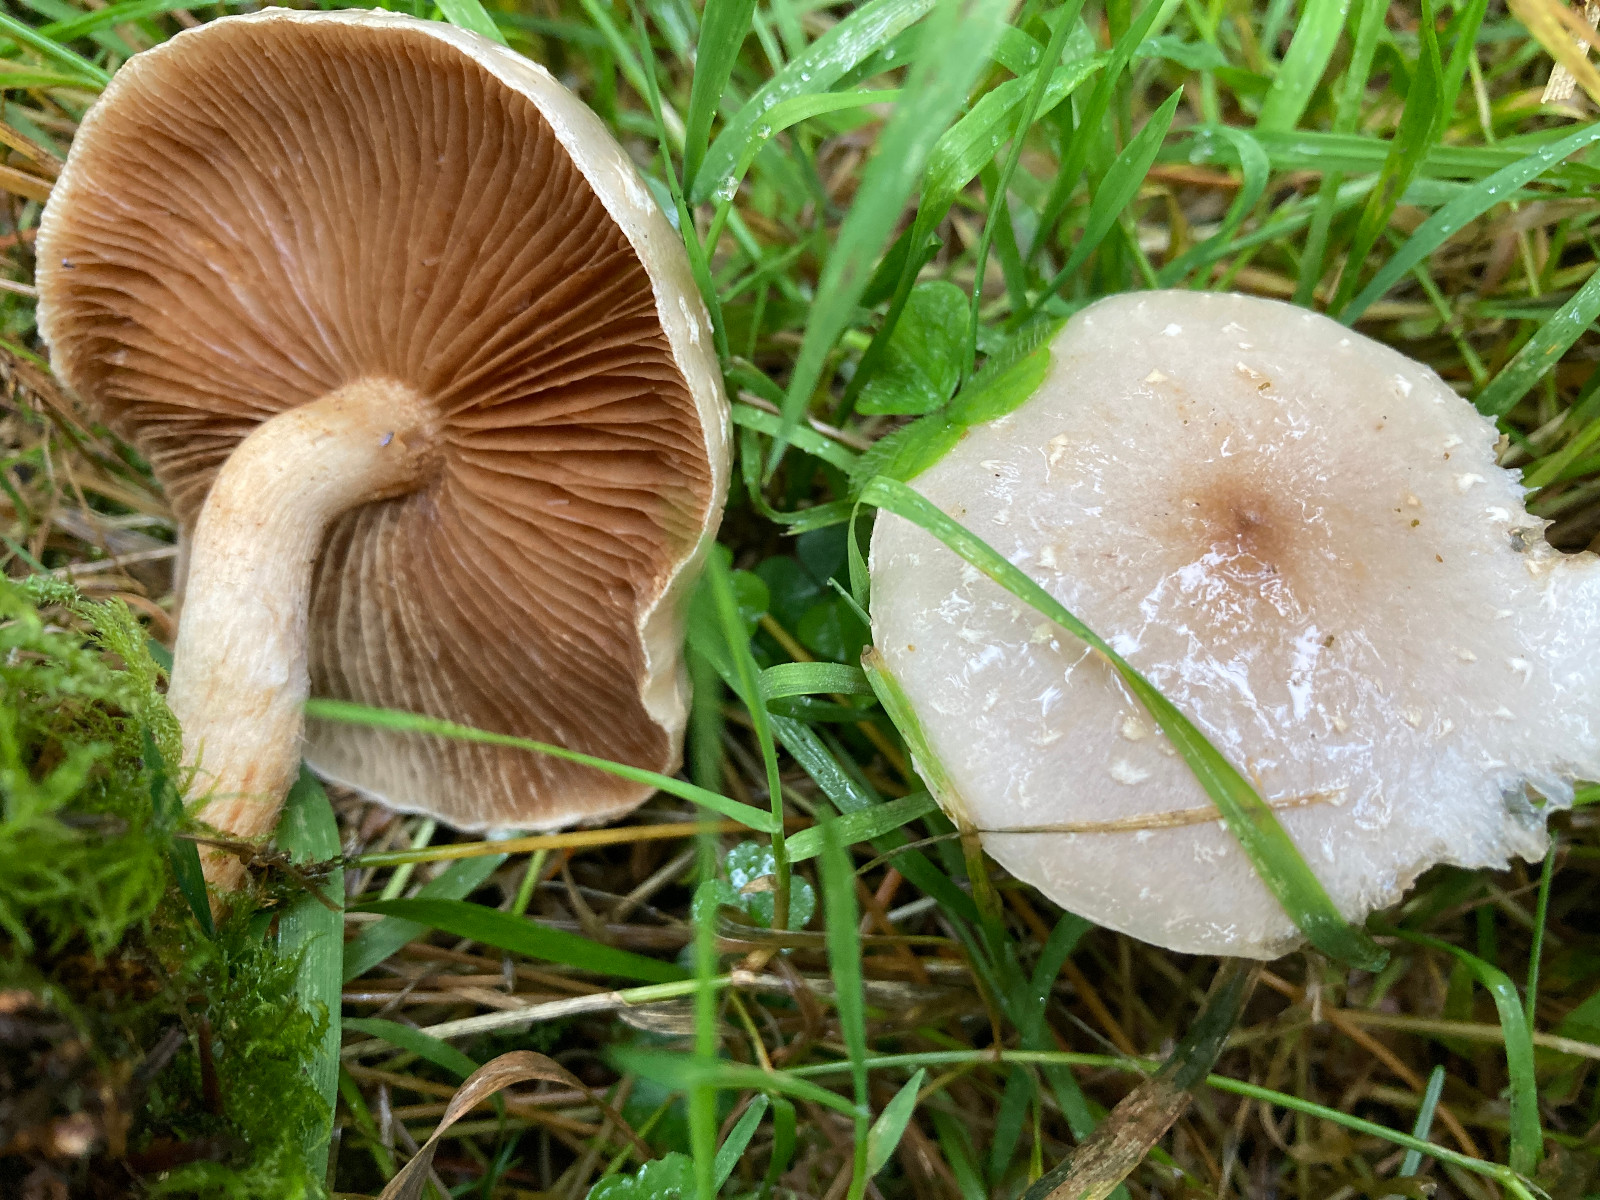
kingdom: Fungi
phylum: Basidiomycota
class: Agaricomycetes
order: Agaricales
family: Strophariaceae
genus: Pholiota
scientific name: Pholiota lenta
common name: løv-skælhat
